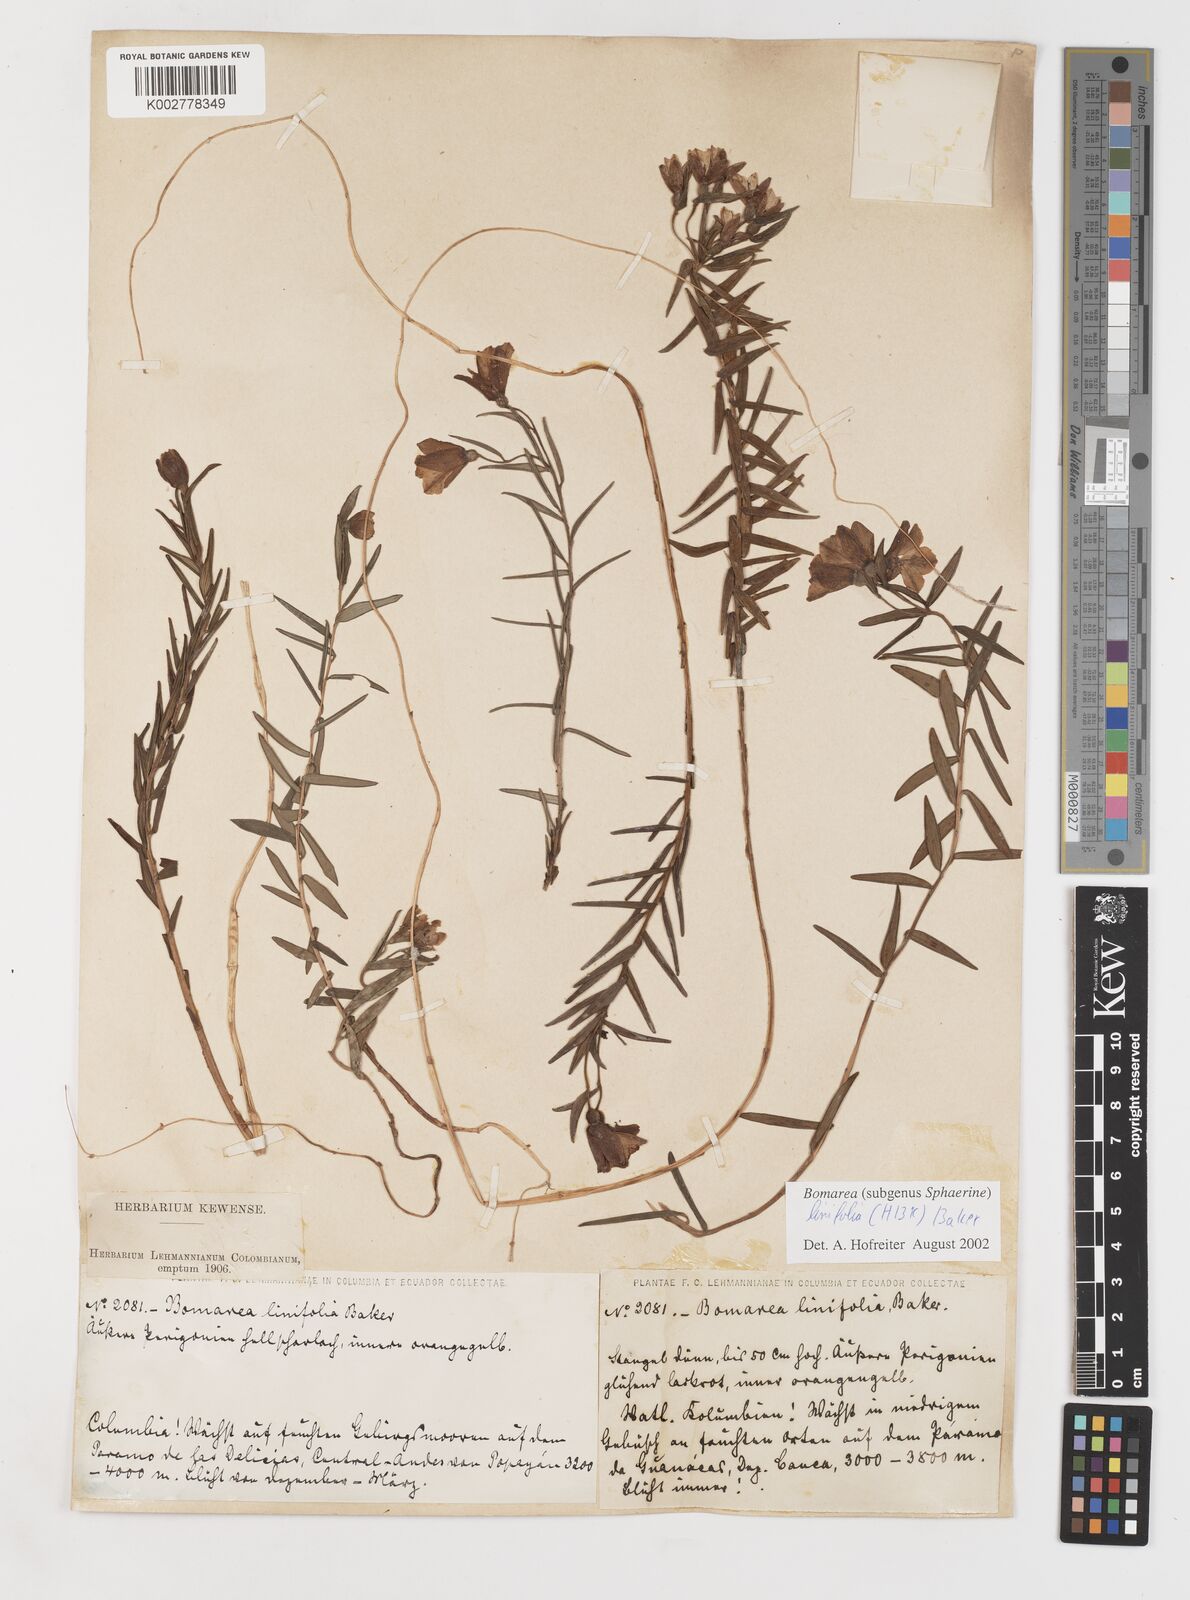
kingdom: Plantae
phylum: Tracheophyta
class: Liliopsida
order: Liliales
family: Alstroemeriaceae
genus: Bomarea
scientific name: Bomarea linifolia
